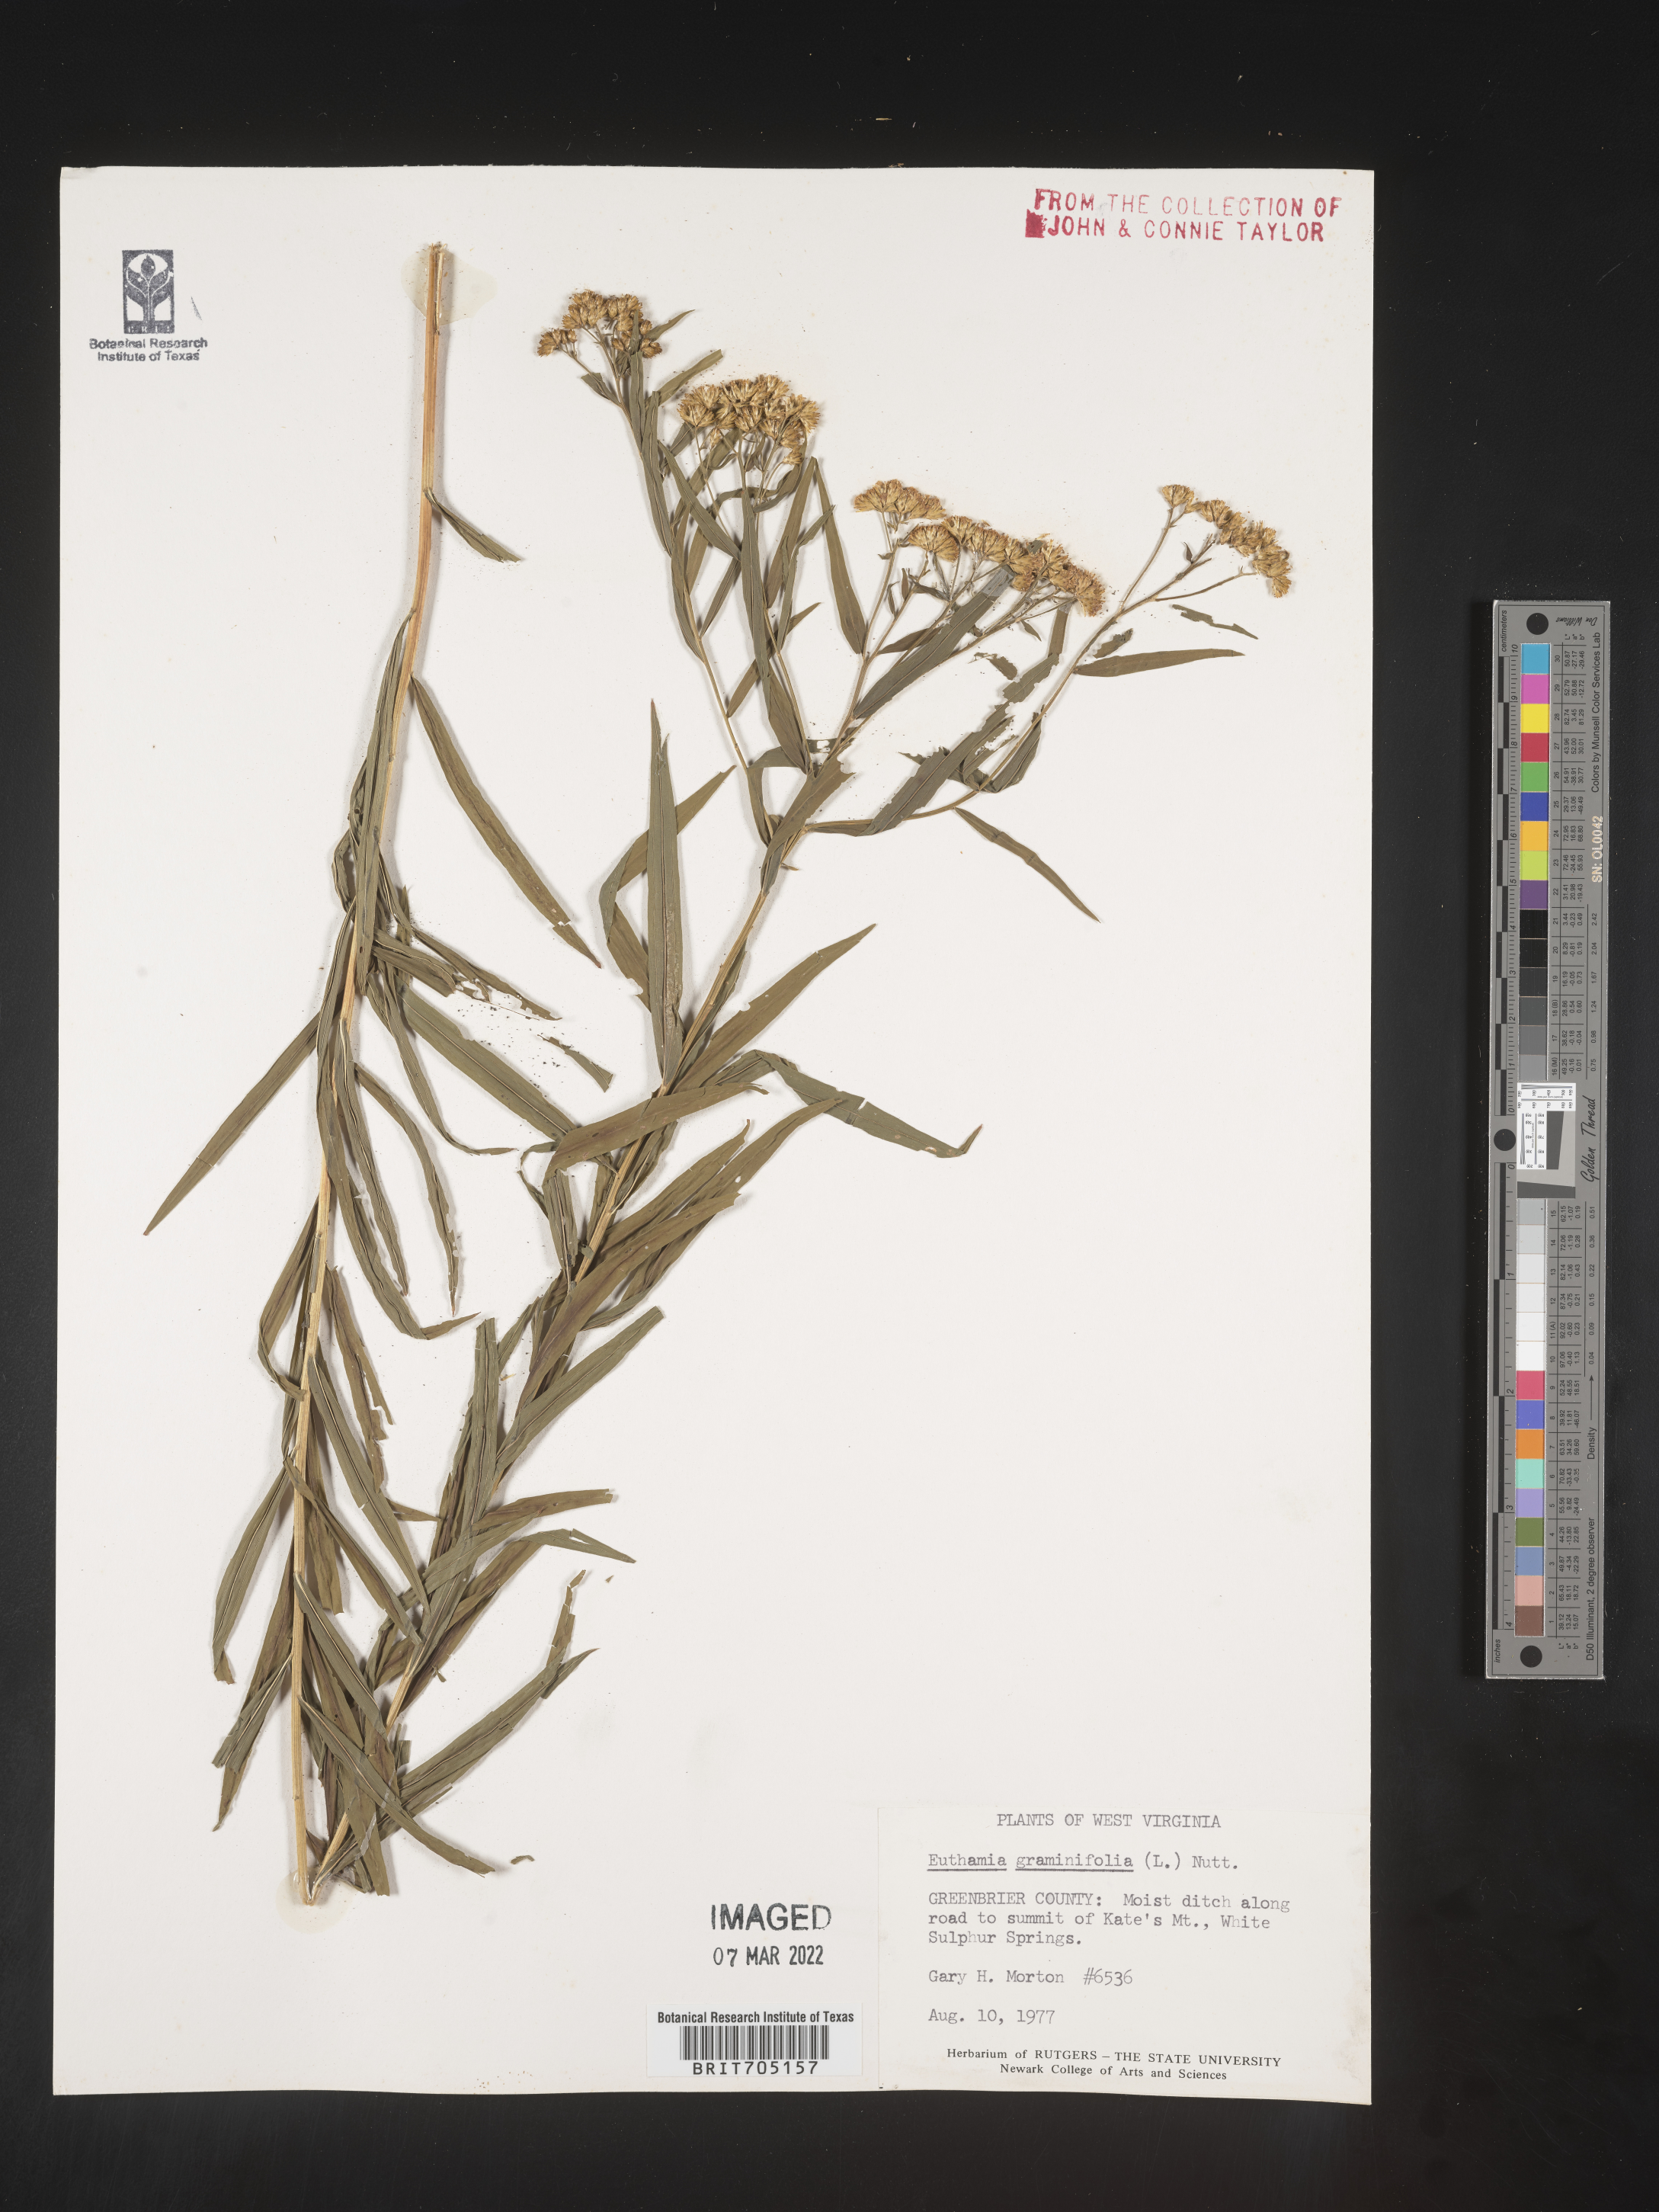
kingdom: Plantae
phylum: Tracheophyta
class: Magnoliopsida
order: Asterales
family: Asteraceae
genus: Euthamia
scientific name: Euthamia graminifolia
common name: Common goldentop
